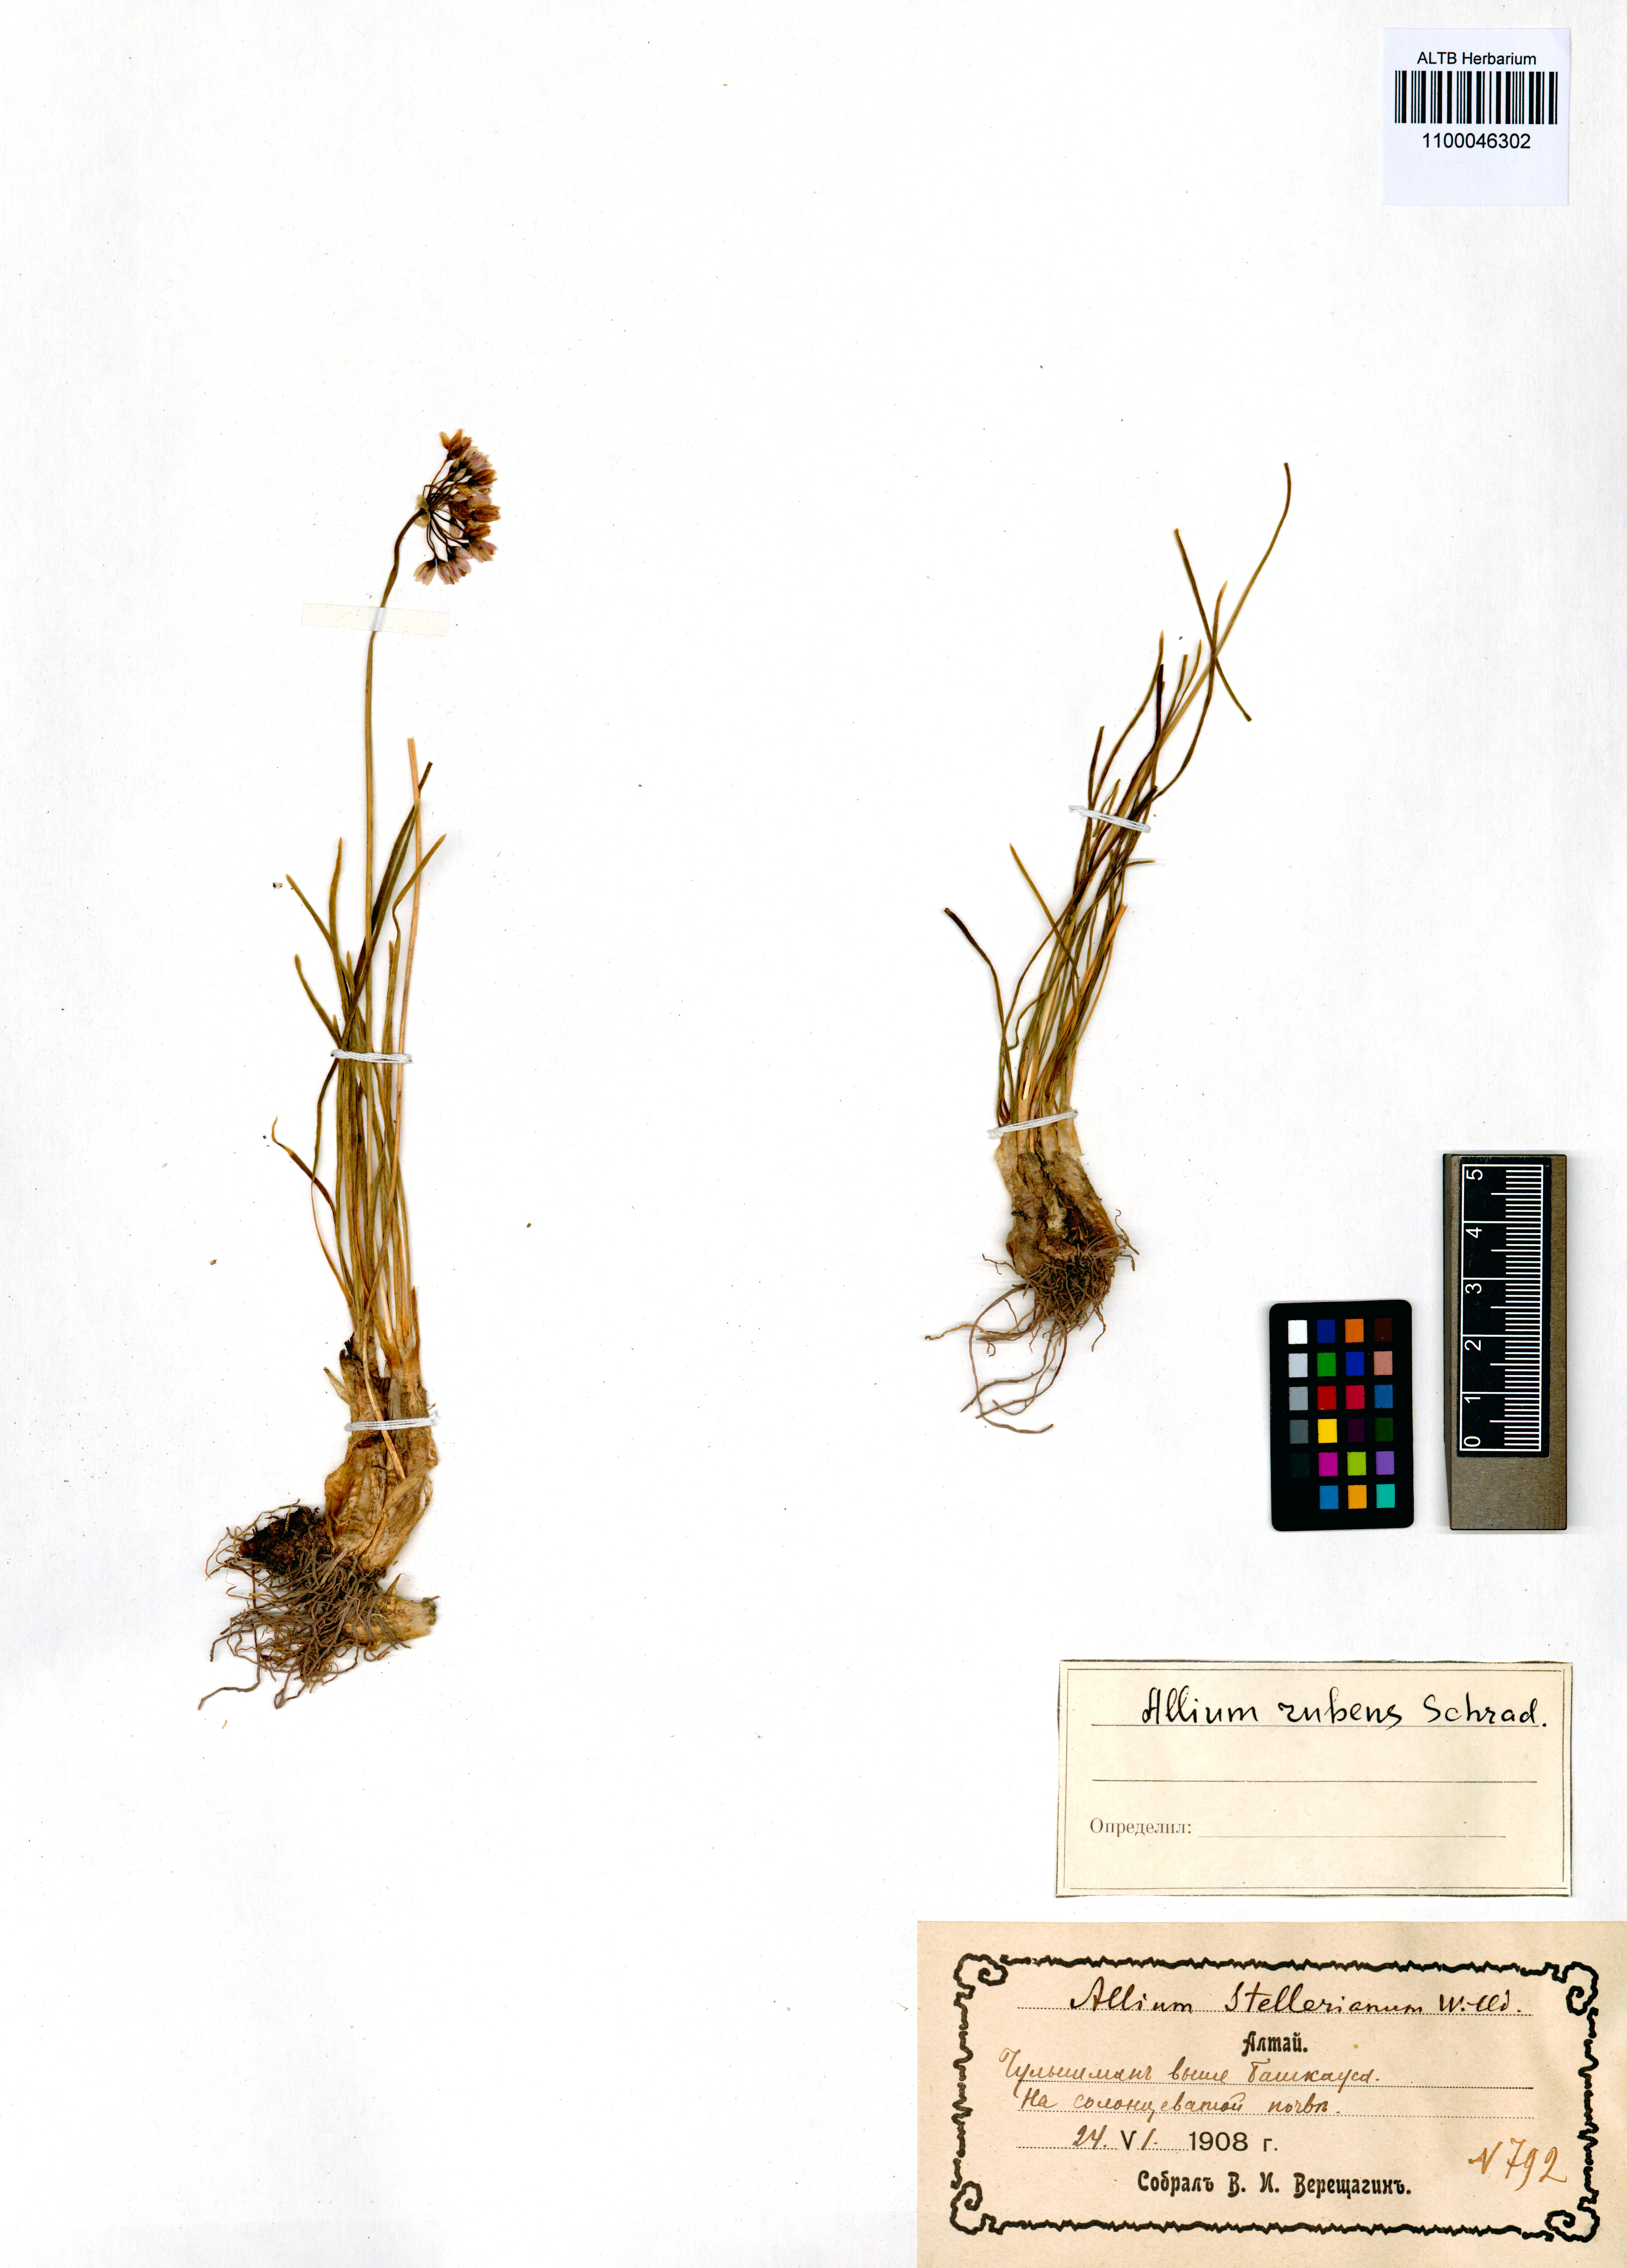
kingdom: Plantae
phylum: Tracheophyta
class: Liliopsida
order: Asparagales
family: Amaryllidaceae
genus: Allium
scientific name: Allium rubens
